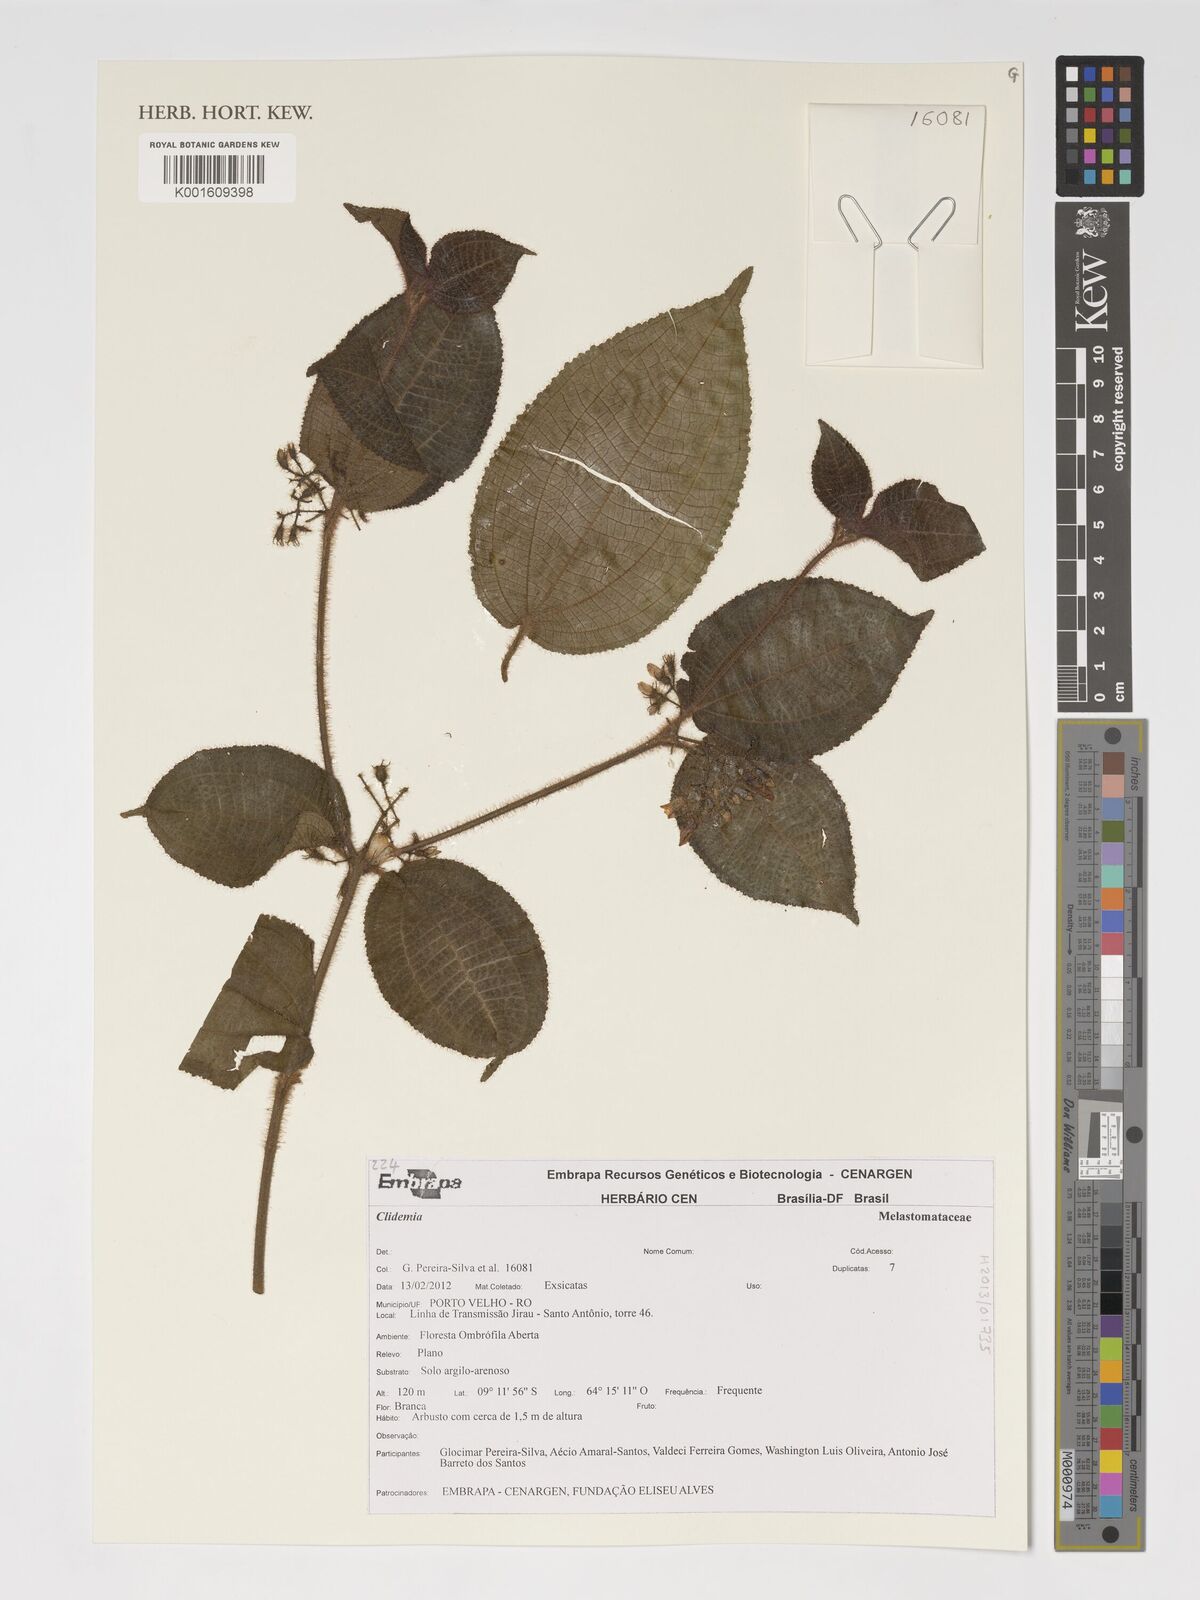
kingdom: Plantae
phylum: Tracheophyta
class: Magnoliopsida
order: Myrtales
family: Melastomataceae
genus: Miconia
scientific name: Miconia
